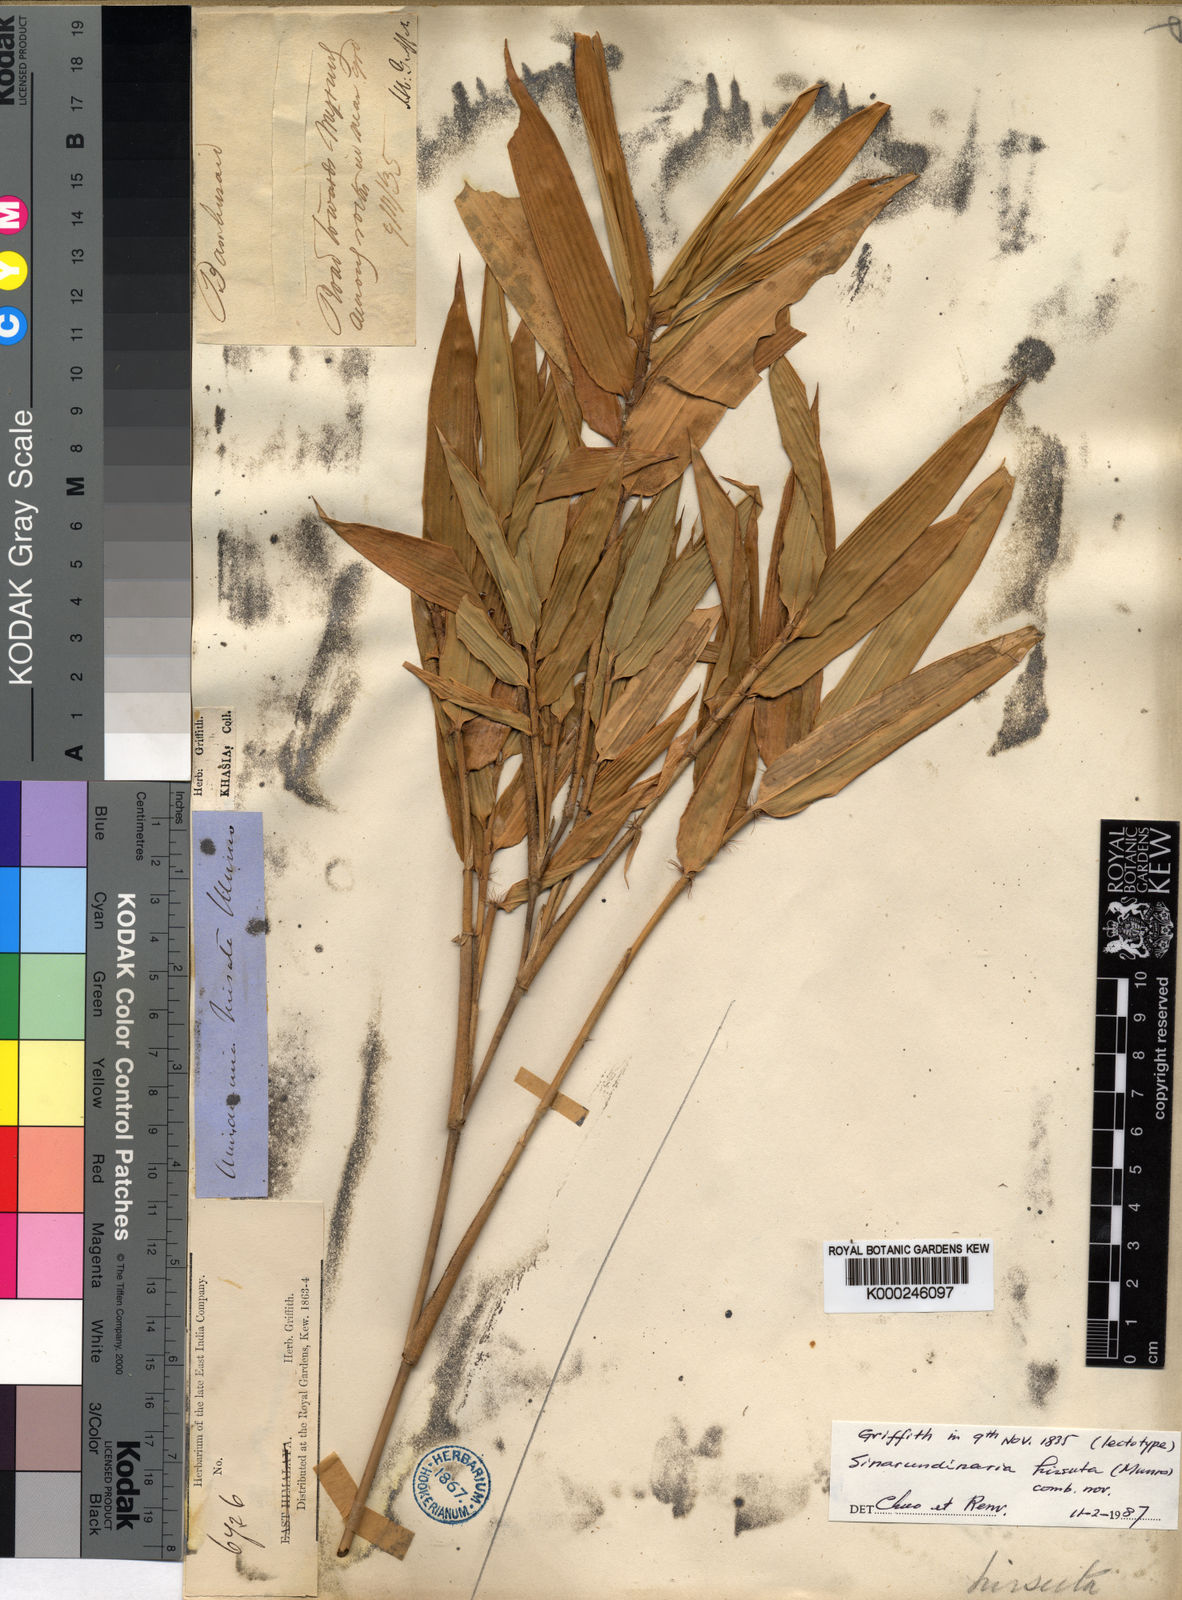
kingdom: Plantae
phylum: Tracheophyta
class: Liliopsida
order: Poales
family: Poaceae
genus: Yushania
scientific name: Yushania hirsuta
